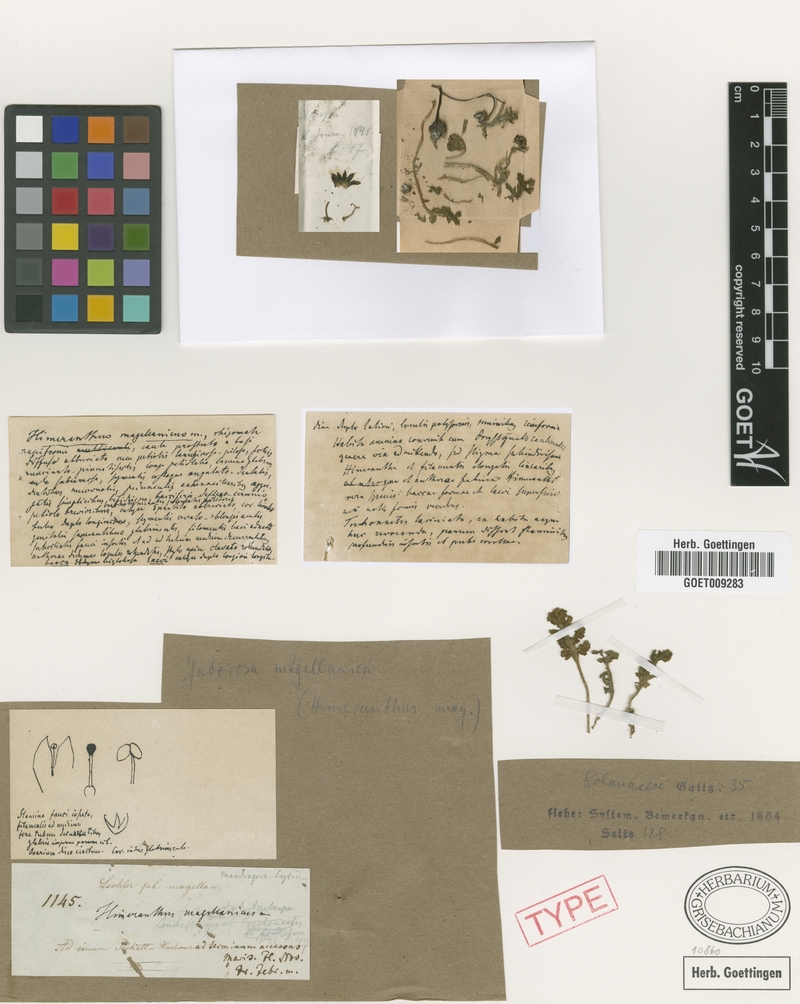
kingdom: Plantae
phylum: Tracheophyta
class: Magnoliopsida
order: Solanales
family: Solanaceae
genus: Jaborosa
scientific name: Jaborosa magellanica
